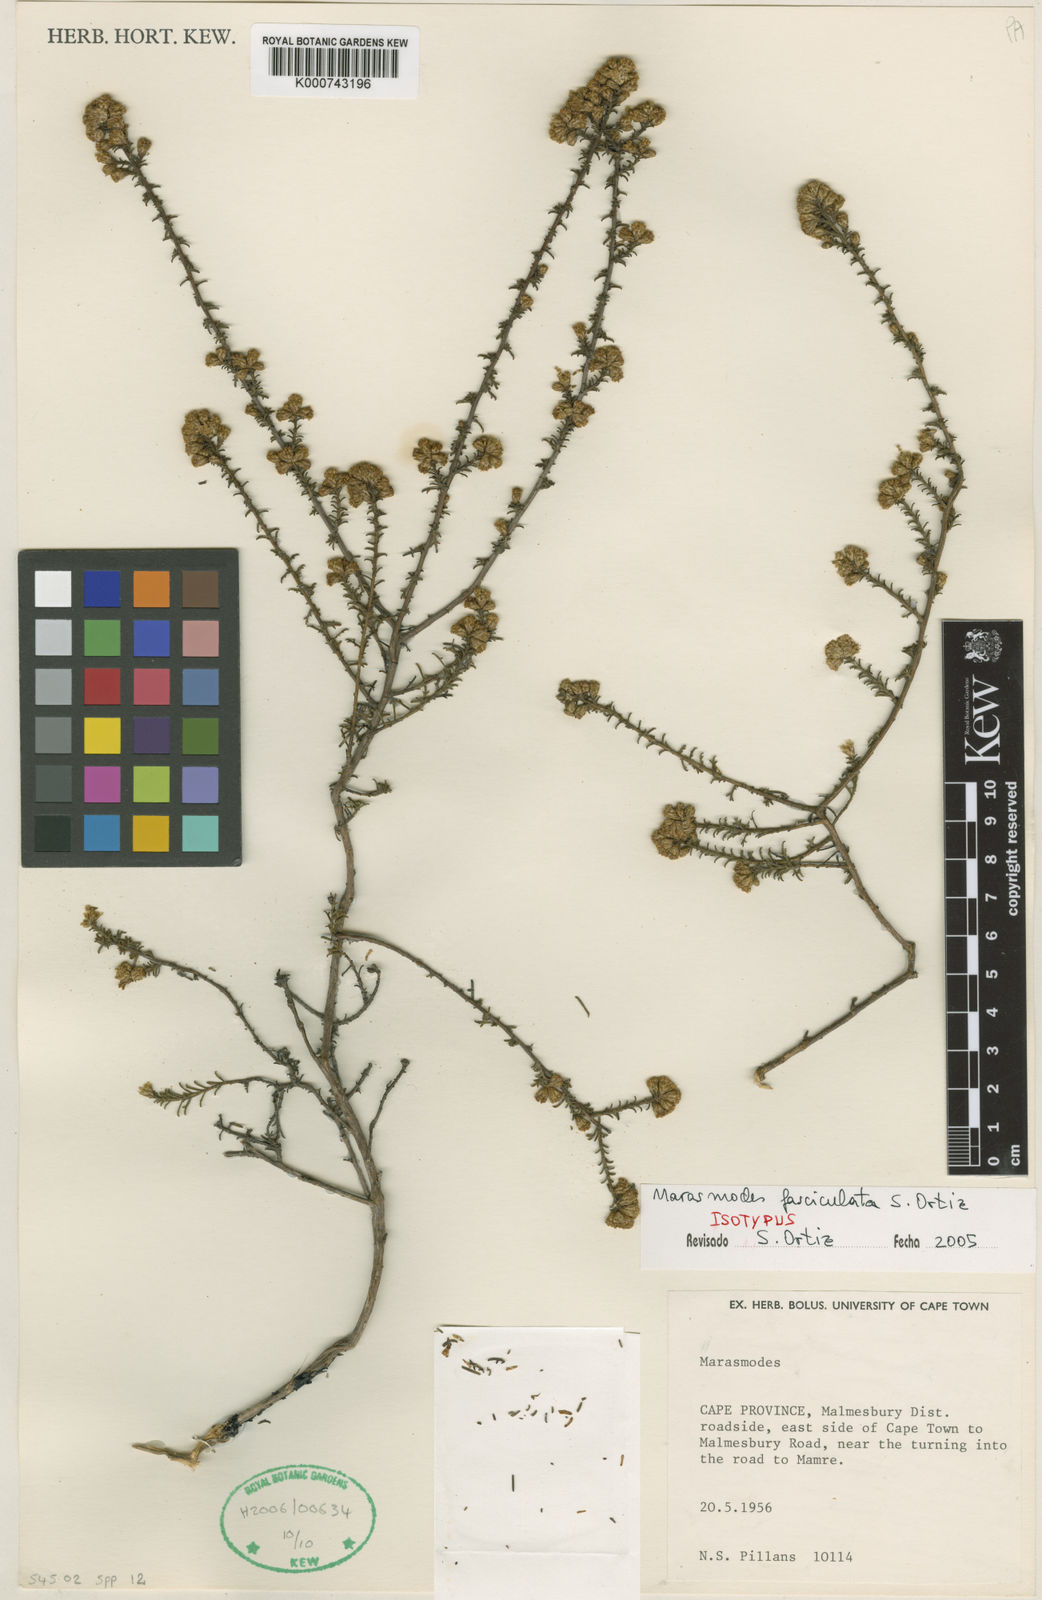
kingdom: Plantae
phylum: Tracheophyta
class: Magnoliopsida
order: Asterales
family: Asteraceae
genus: Marasmodes
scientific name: Marasmodes fasciculata
